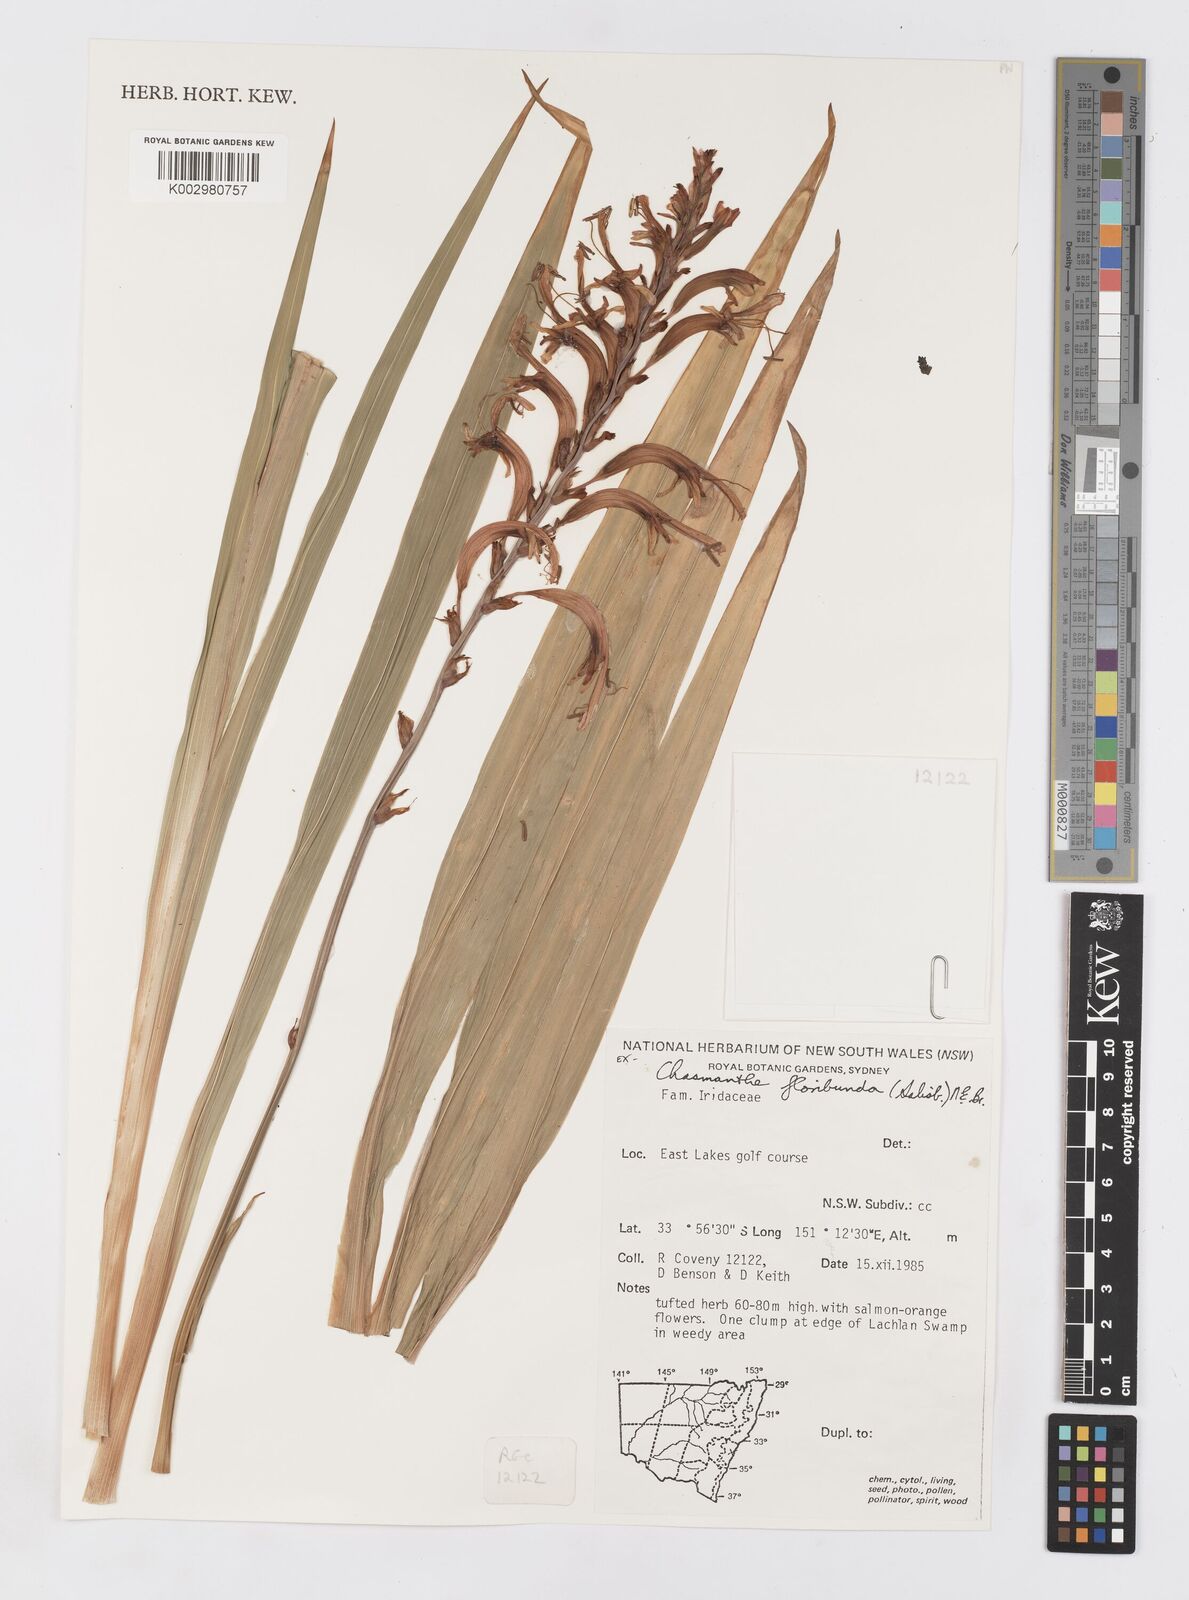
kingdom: Plantae
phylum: Tracheophyta
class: Liliopsida
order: Asparagales
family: Iridaceae
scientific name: Iridaceae
